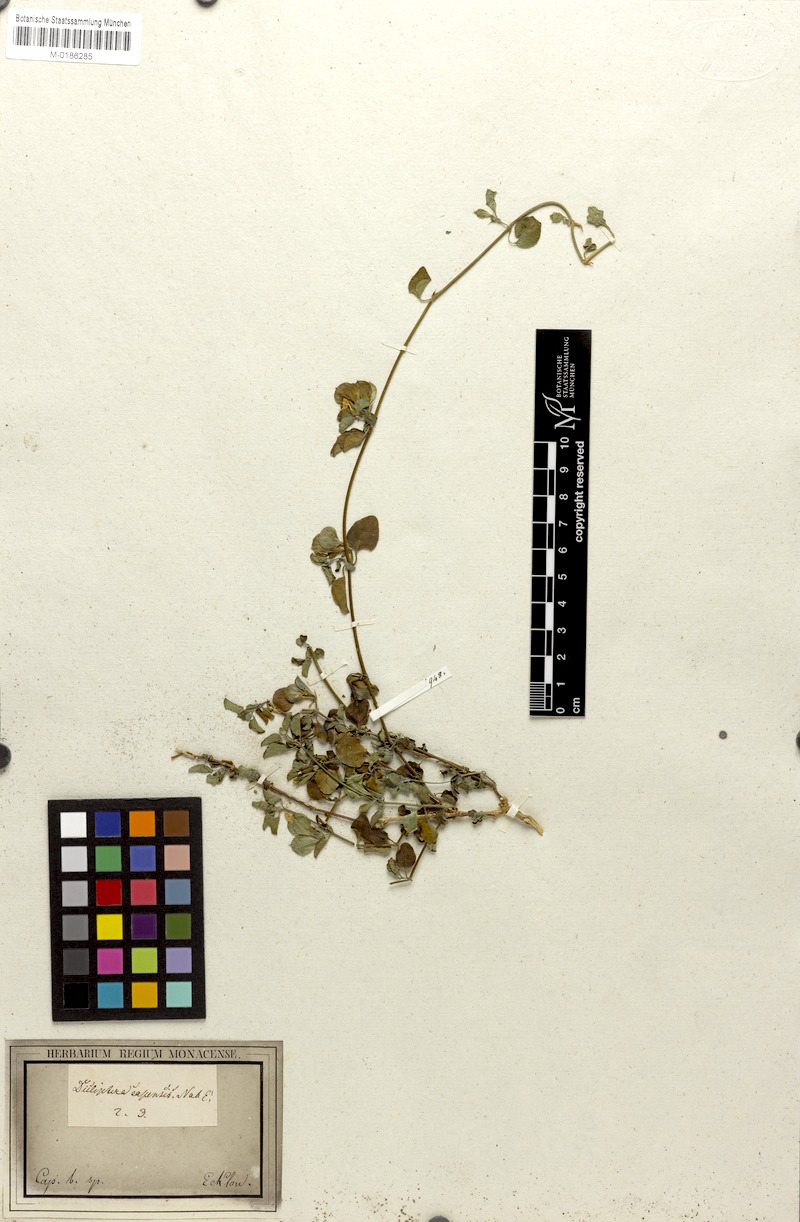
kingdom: Plantae
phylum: Tracheophyta
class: Magnoliopsida
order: Lamiales
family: Acanthaceae
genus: Dicliptera
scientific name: Dicliptera capensis
